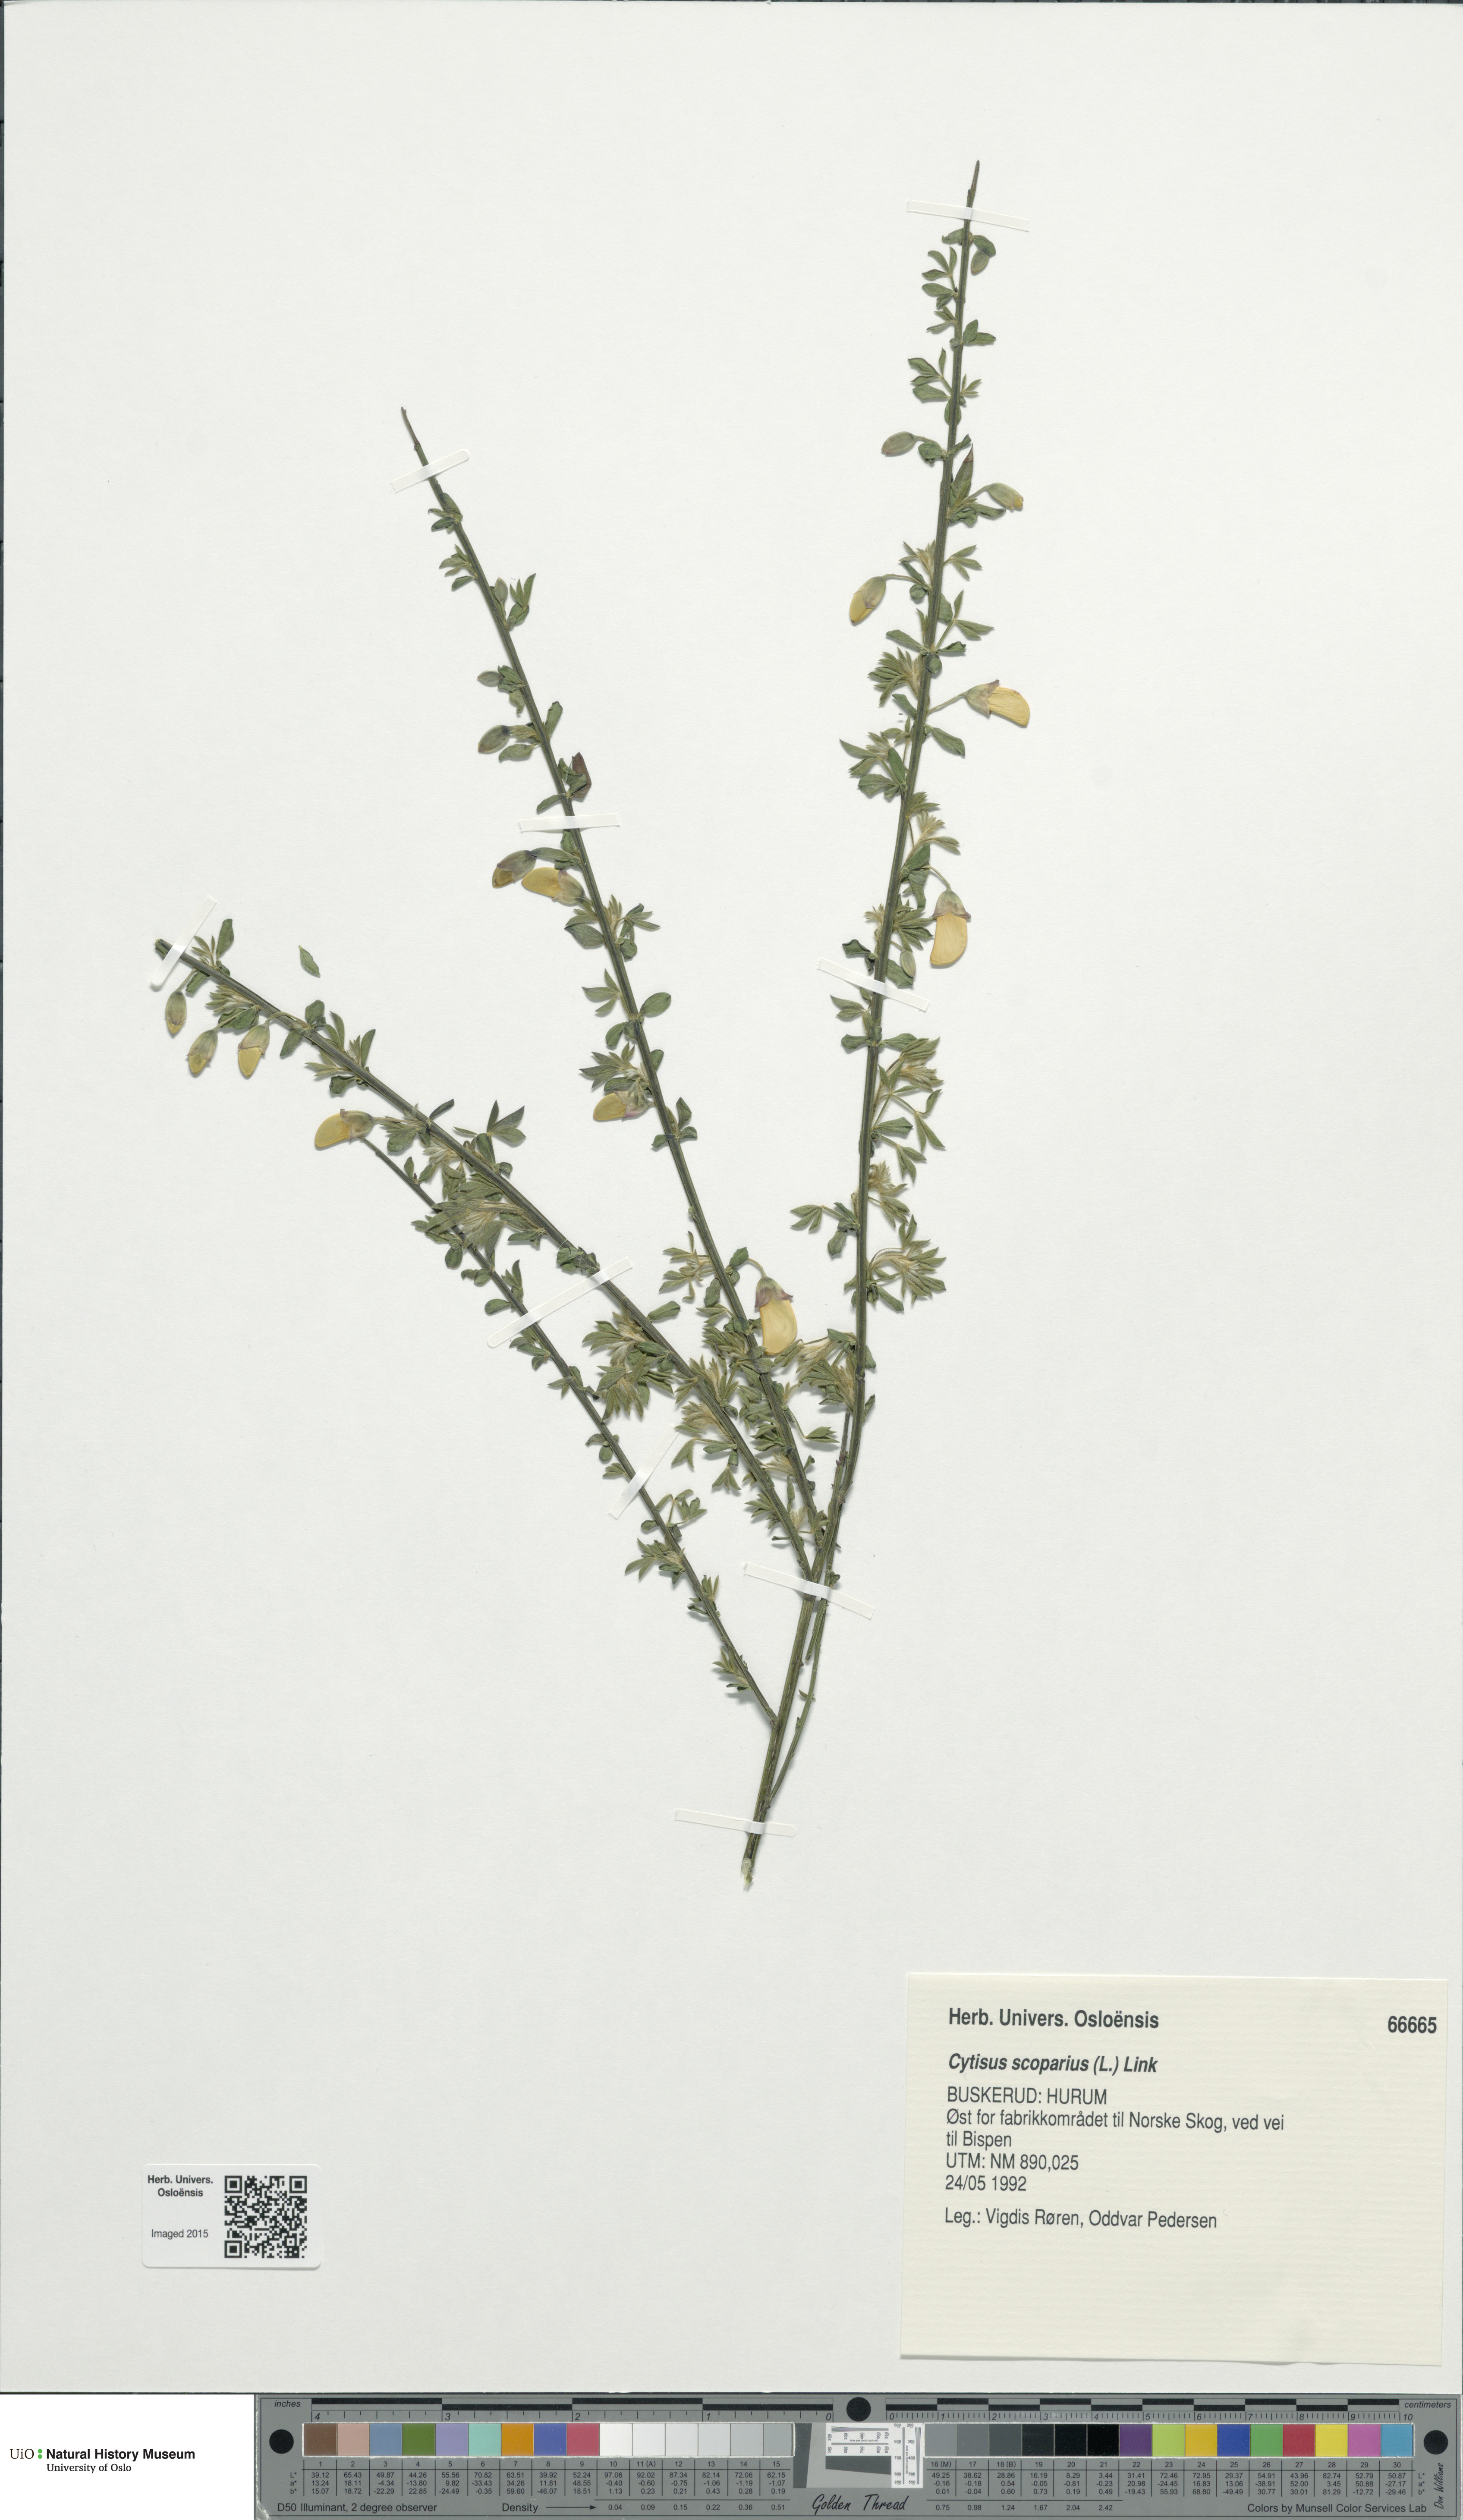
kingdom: Plantae
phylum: Tracheophyta
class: Magnoliopsida
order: Fabales
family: Fabaceae
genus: Cytisus
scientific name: Cytisus scoparius
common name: Scotch broom
